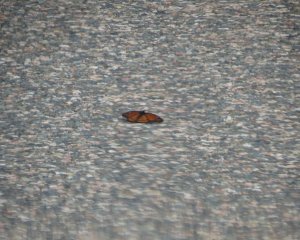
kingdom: Animalia
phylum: Arthropoda
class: Insecta
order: Lepidoptera
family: Nymphalidae
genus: Limenitis
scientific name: Limenitis archippus
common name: Viceroy
